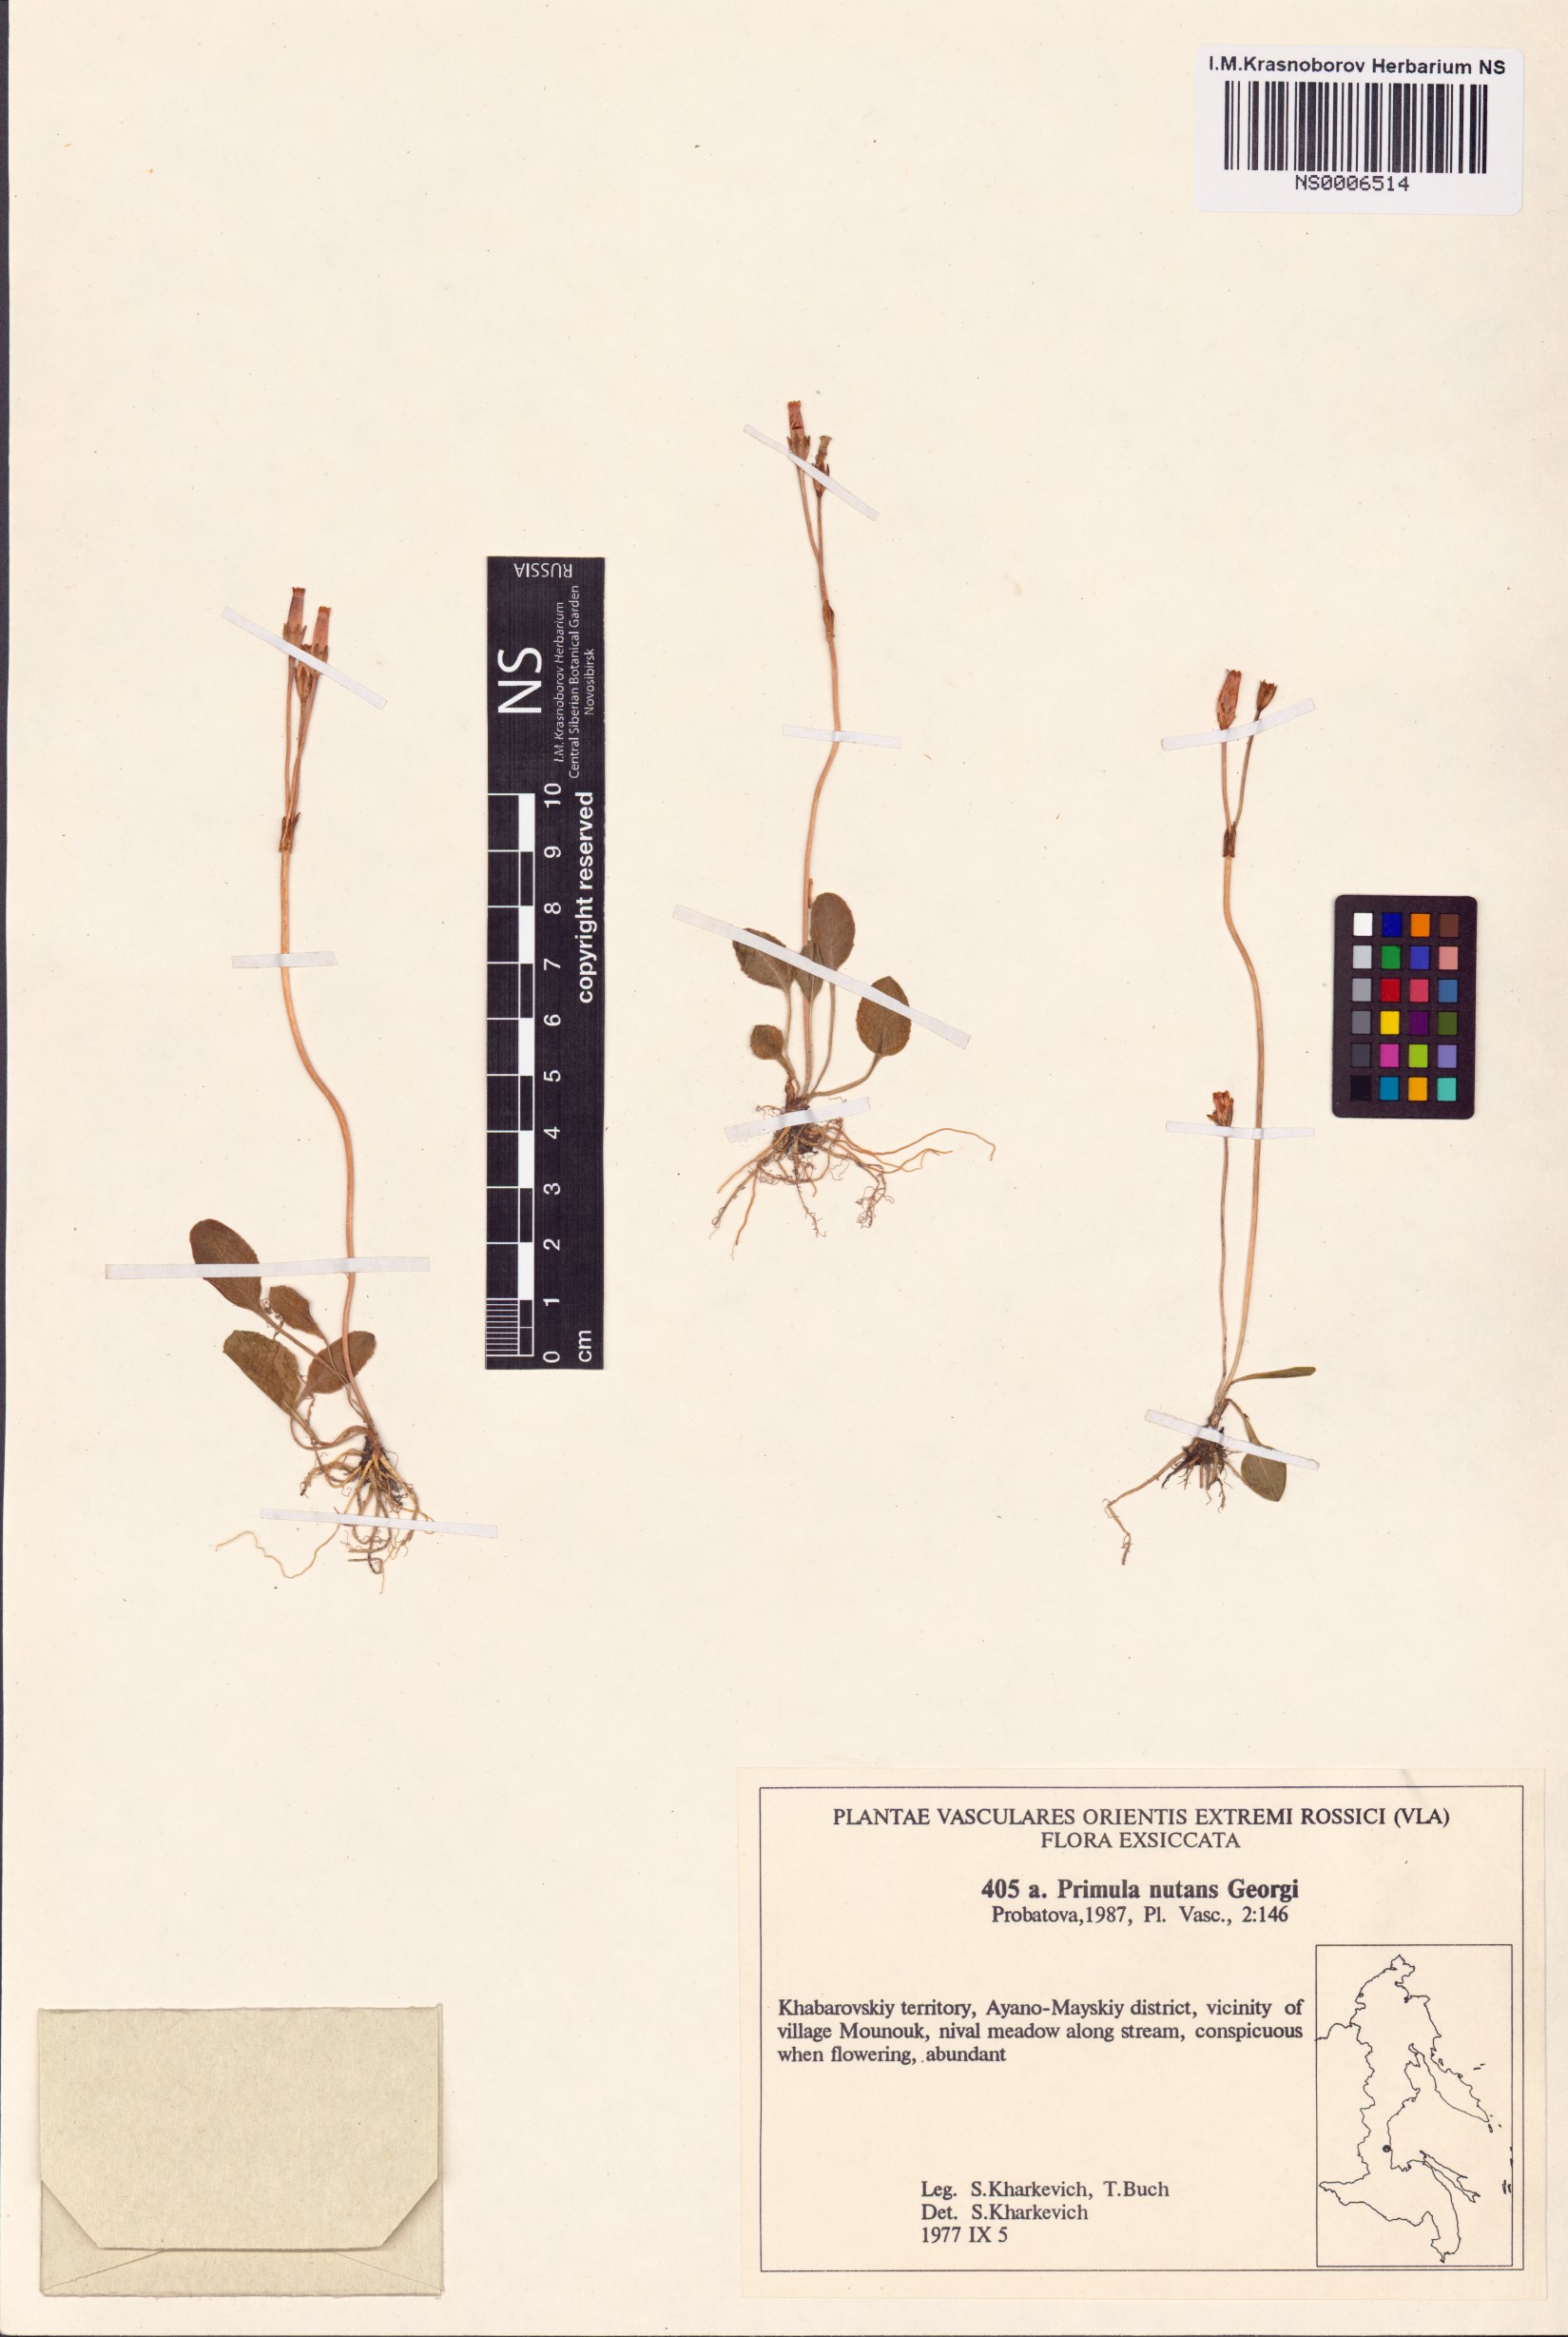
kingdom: Plantae
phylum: Tracheophyta
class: Magnoliopsida
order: Ericales
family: Primulaceae
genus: Primula
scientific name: Primula nutans
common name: Siberian primrose
